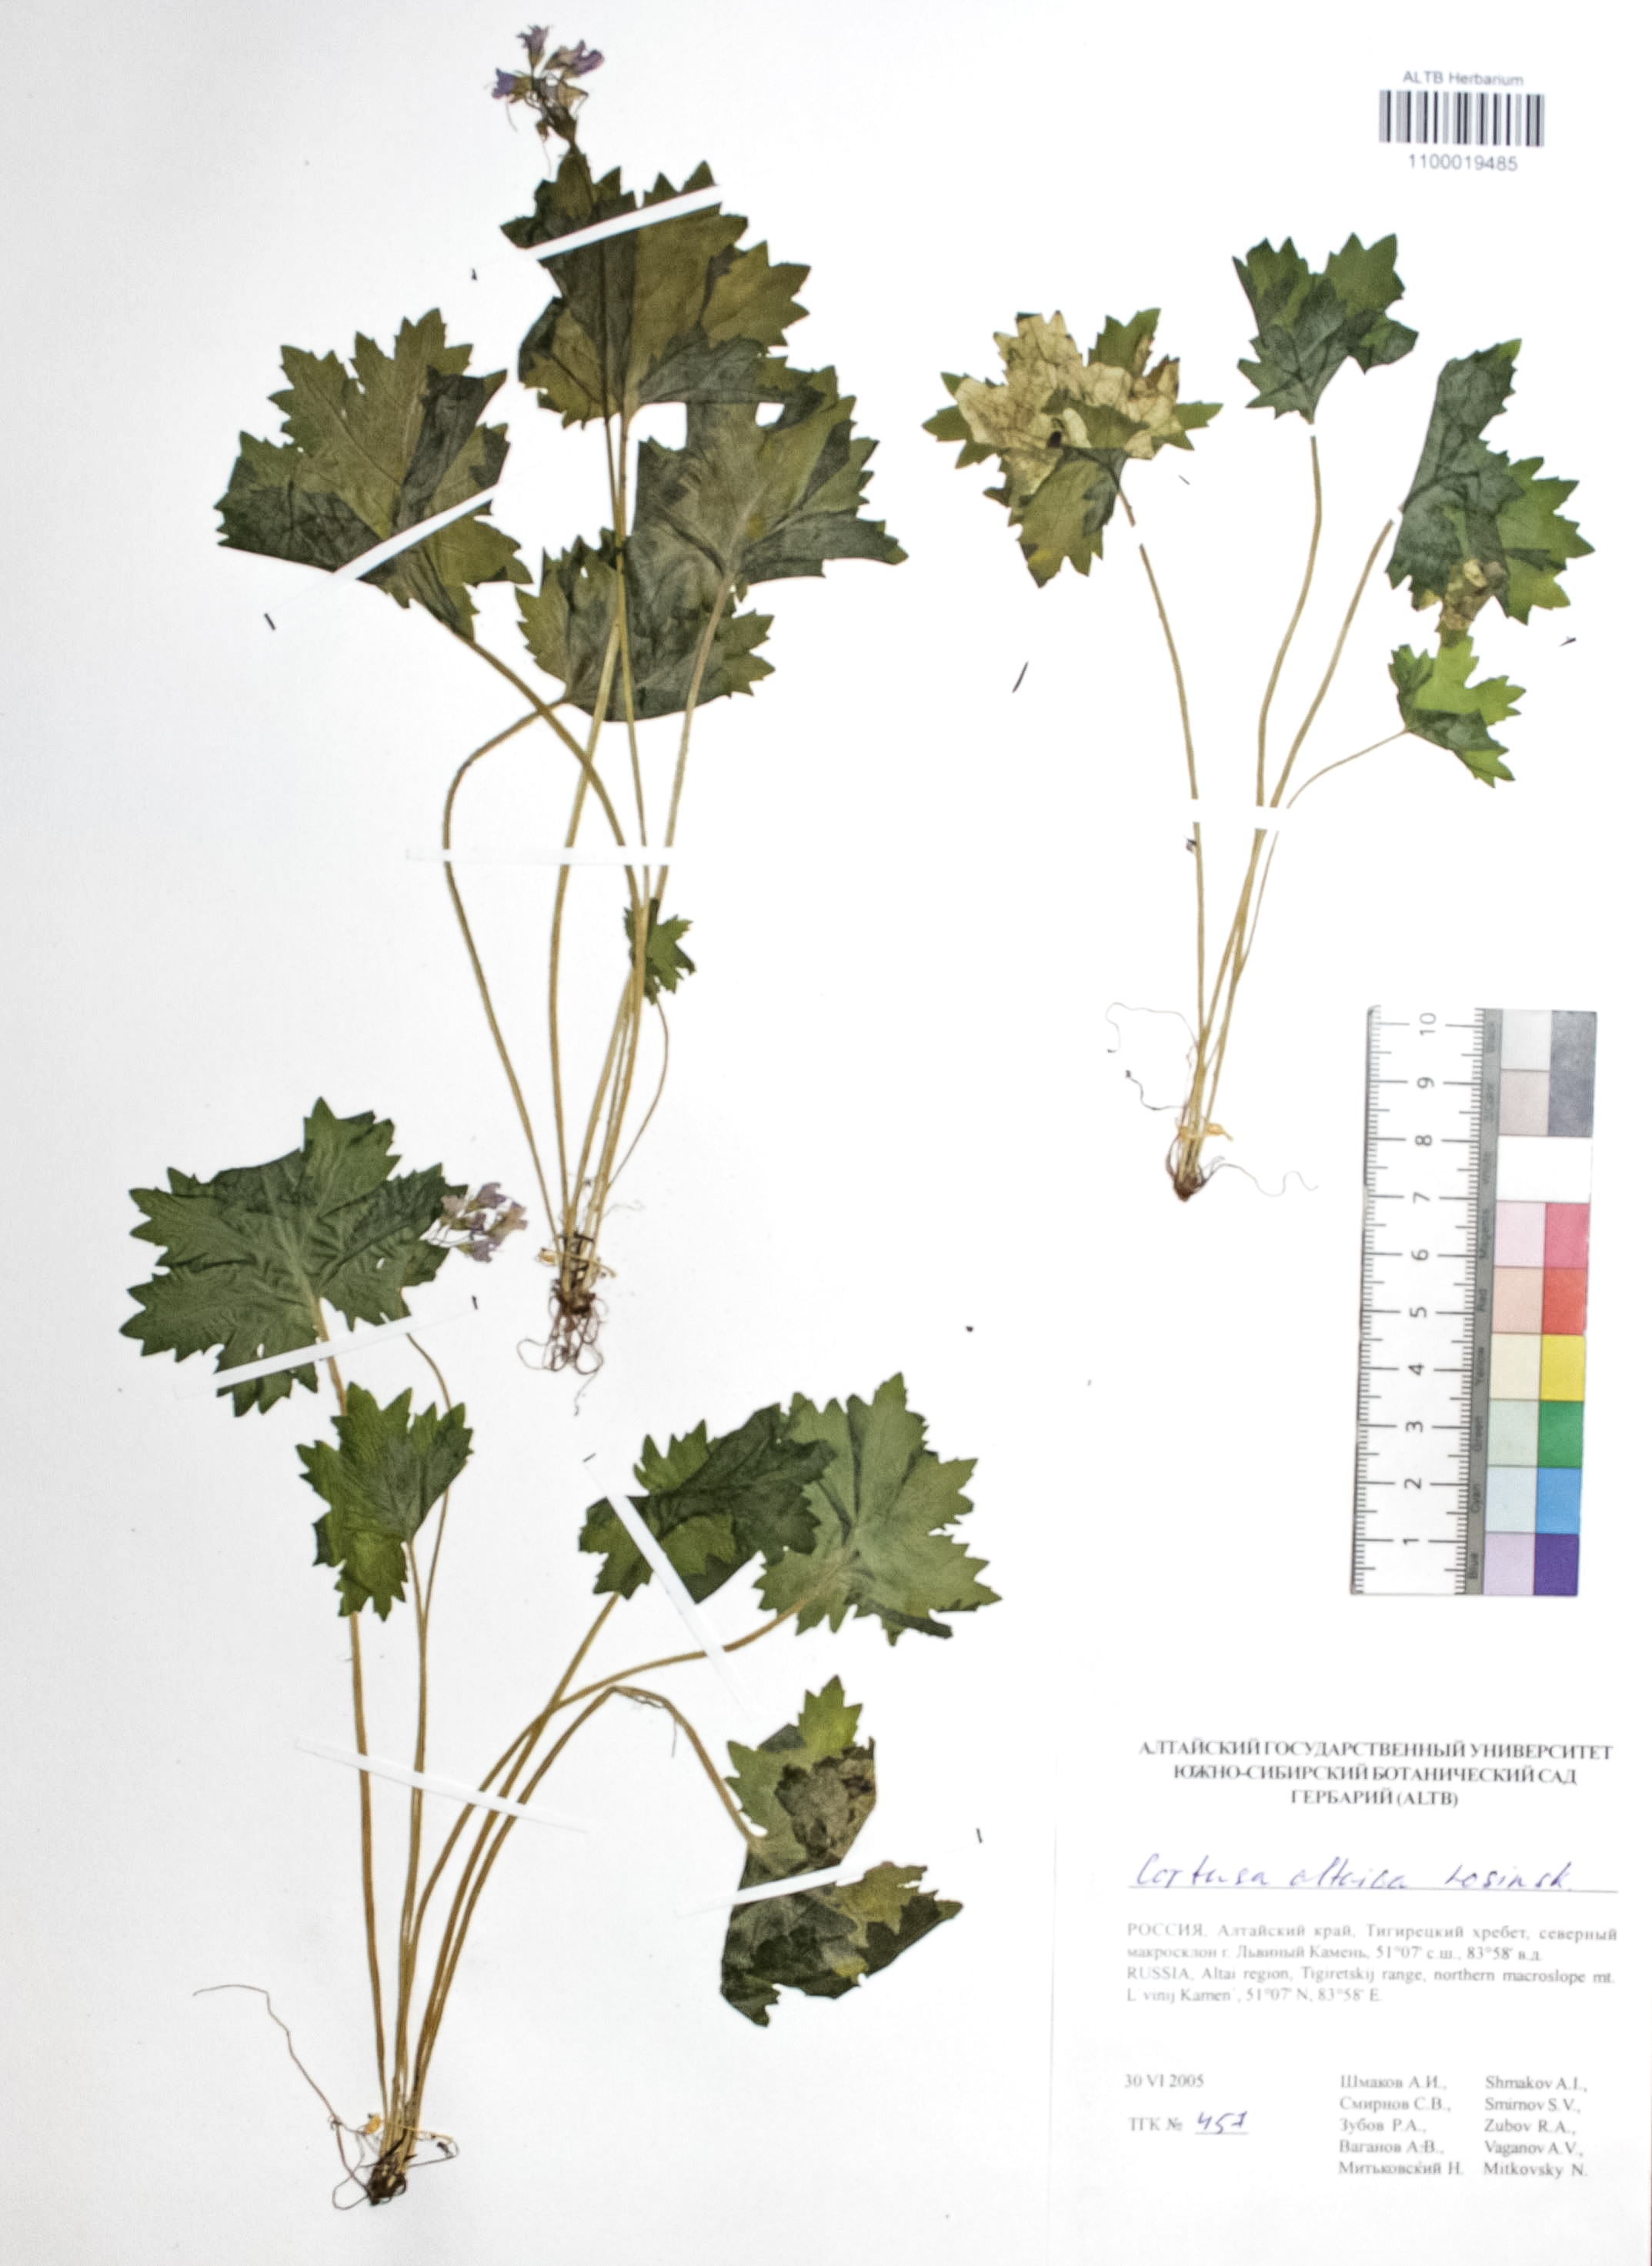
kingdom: Plantae
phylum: Tracheophyta
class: Magnoliopsida
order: Ericales
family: Primulaceae
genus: Primula
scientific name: Primula matthioli
